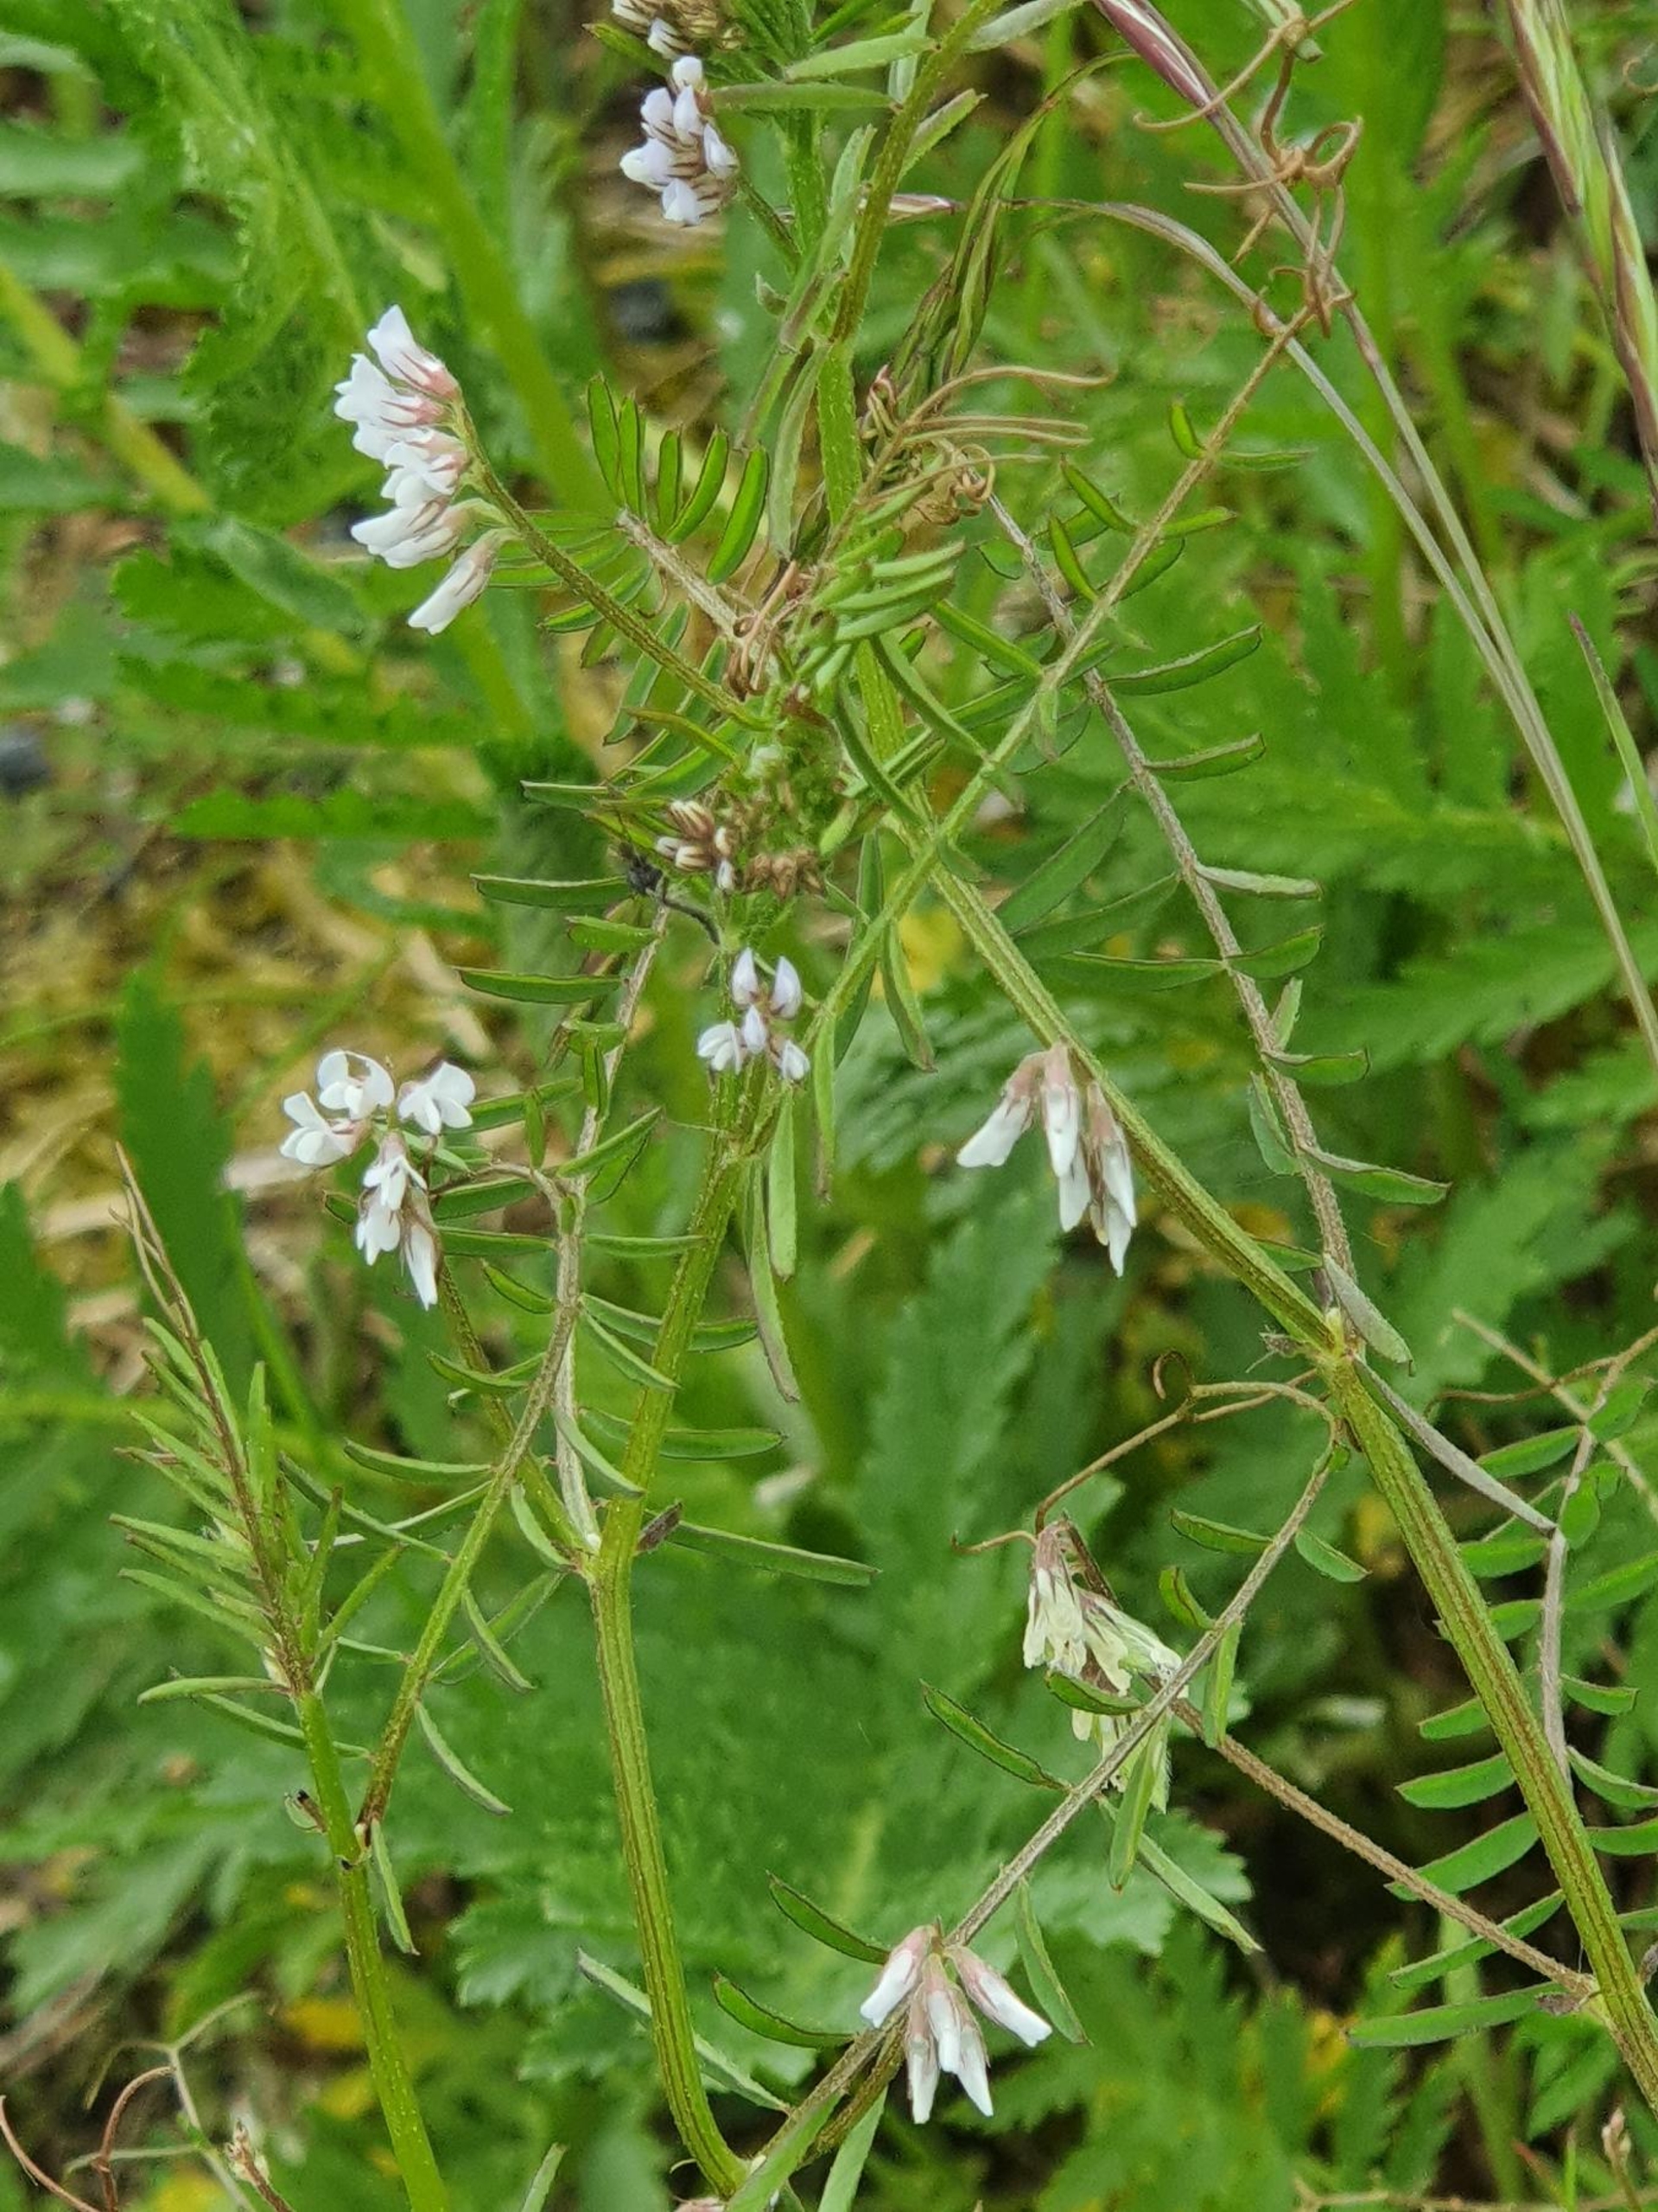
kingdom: Plantae
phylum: Tracheophyta
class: Magnoliopsida
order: Fabales
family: Fabaceae
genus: Vicia
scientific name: Vicia hirsuta
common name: Tofrøet vikke
